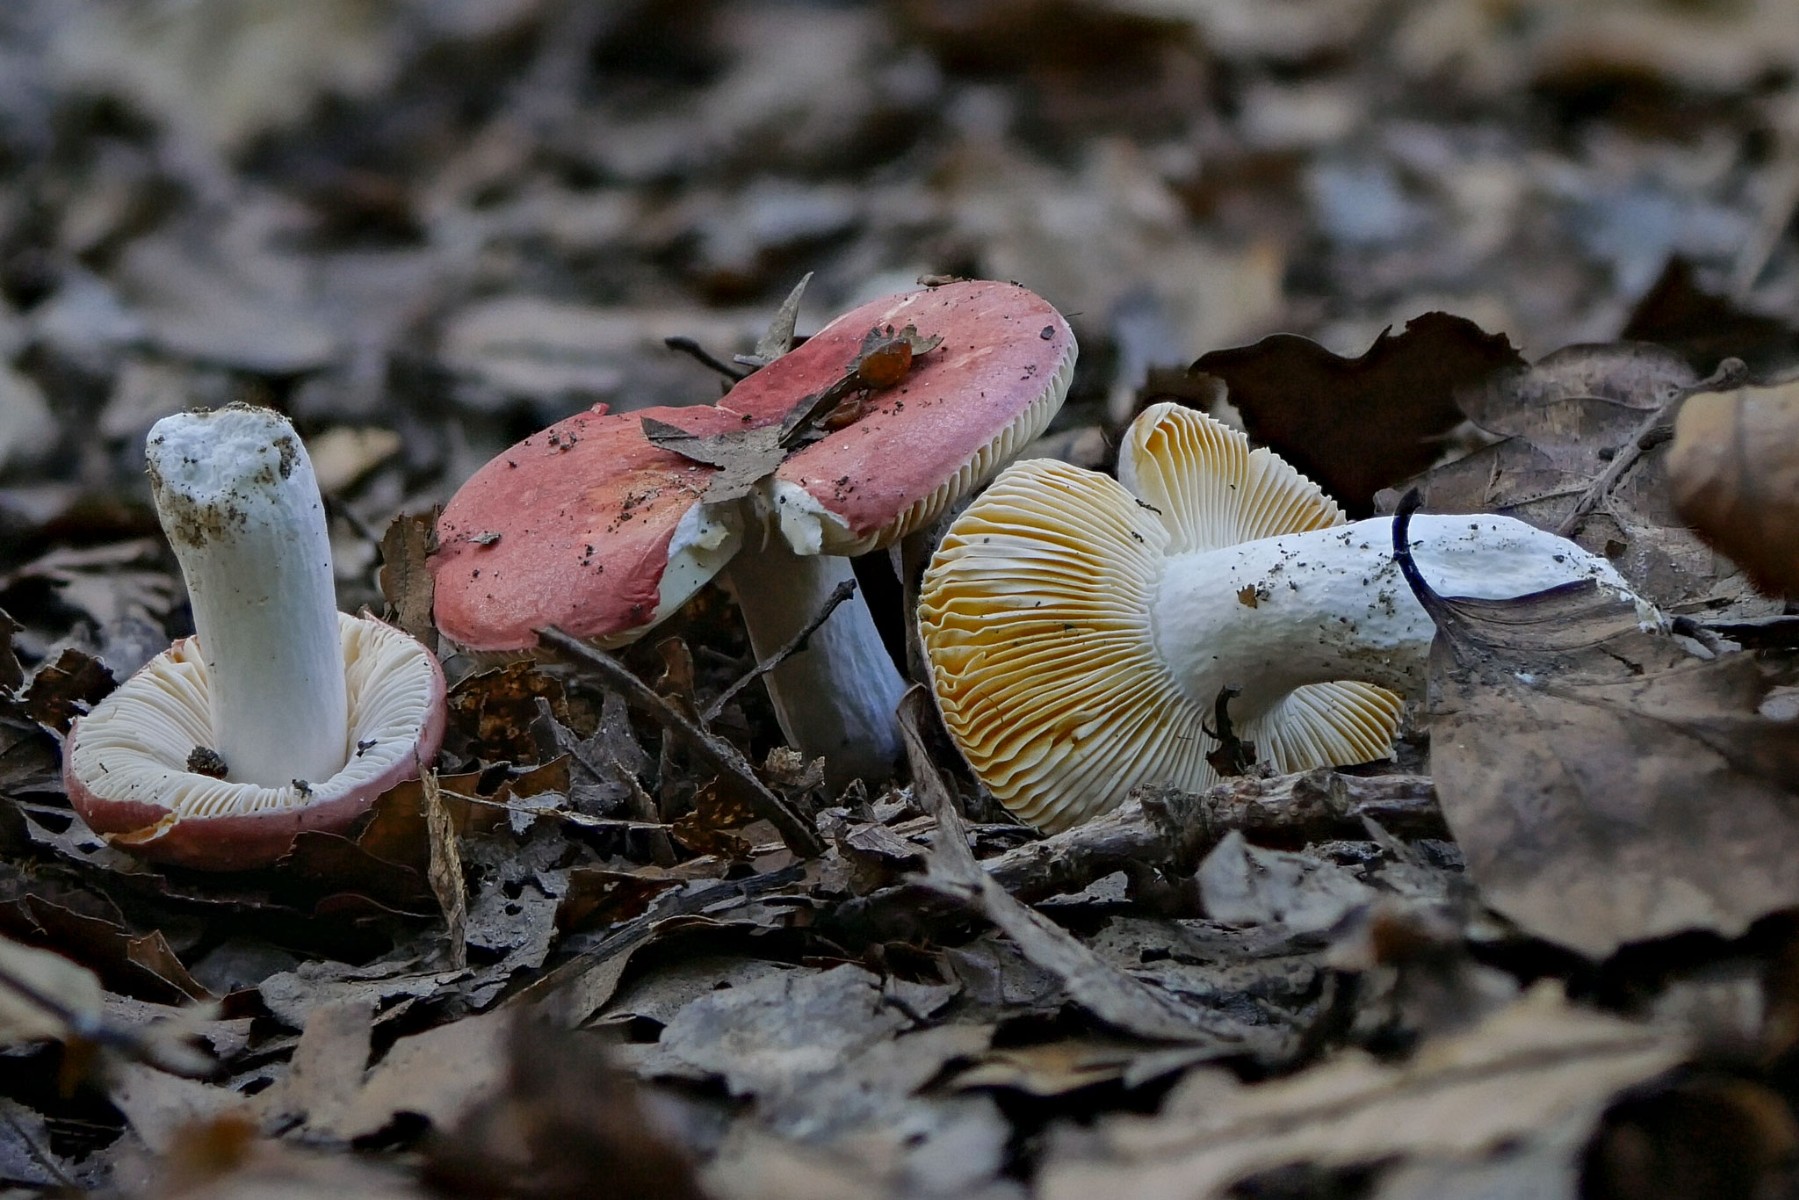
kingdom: Fungi
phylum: Basidiomycota
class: Agaricomycetes
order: Russulales
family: Russulaceae
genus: Russula
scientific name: Russula luteotacta
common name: gulplettet gift-skørhat
